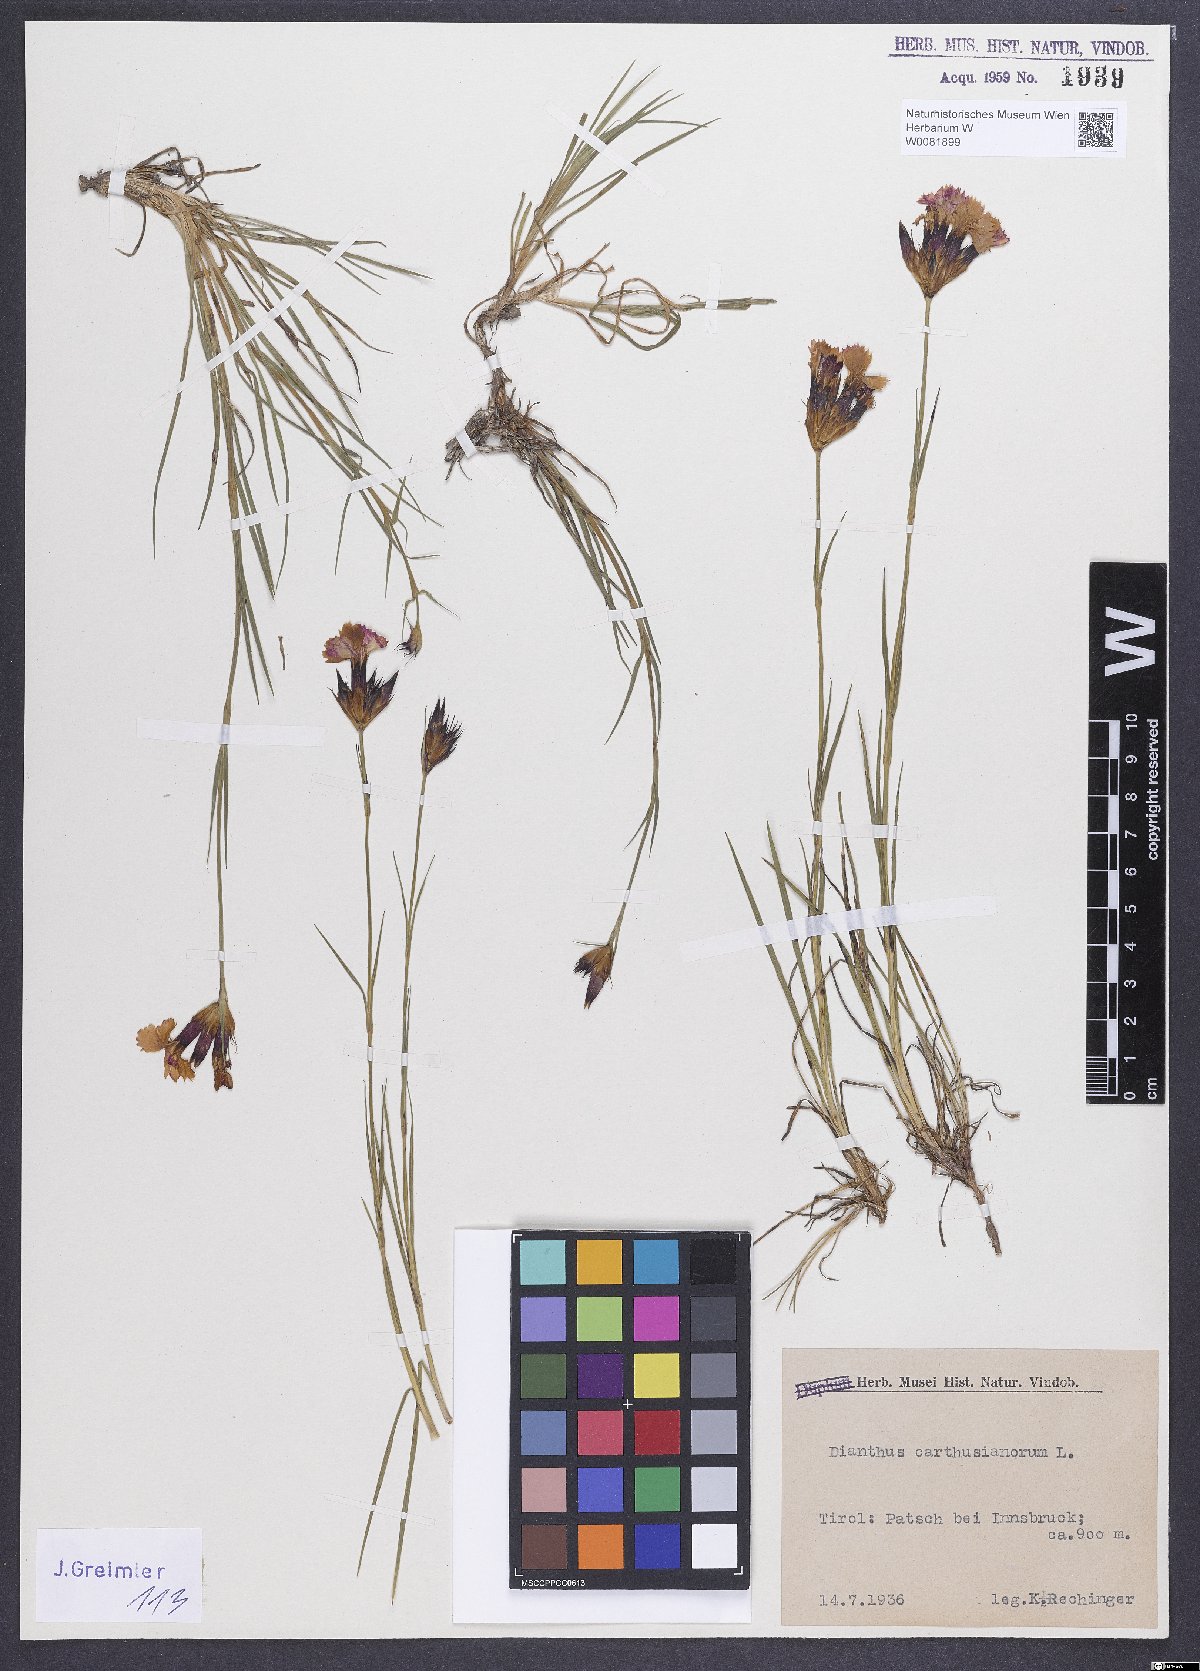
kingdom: Plantae
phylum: Tracheophyta
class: Magnoliopsida
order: Caryophyllales
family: Caryophyllaceae
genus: Dianthus
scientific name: Dianthus carthusianorum
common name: Carthusian pink
